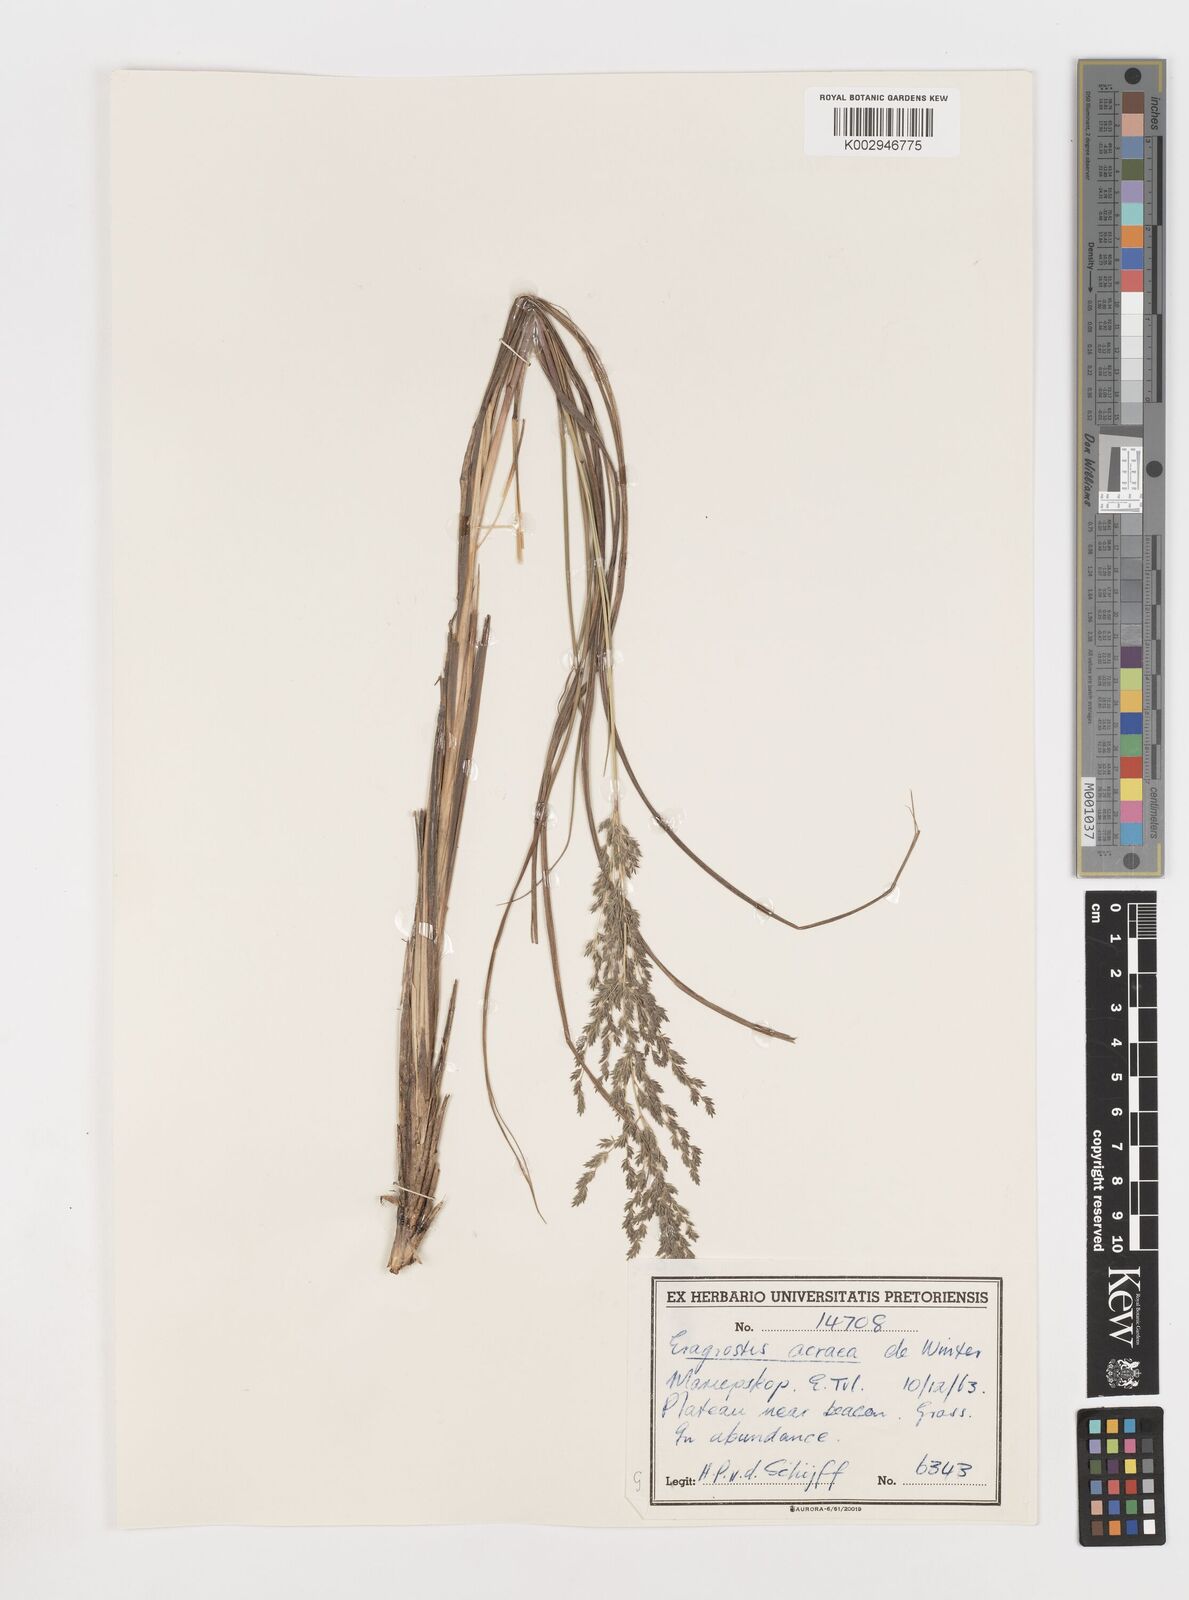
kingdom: Plantae
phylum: Tracheophyta
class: Liliopsida
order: Poales
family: Poaceae
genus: Eragrostis
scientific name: Eragrostis acraea
